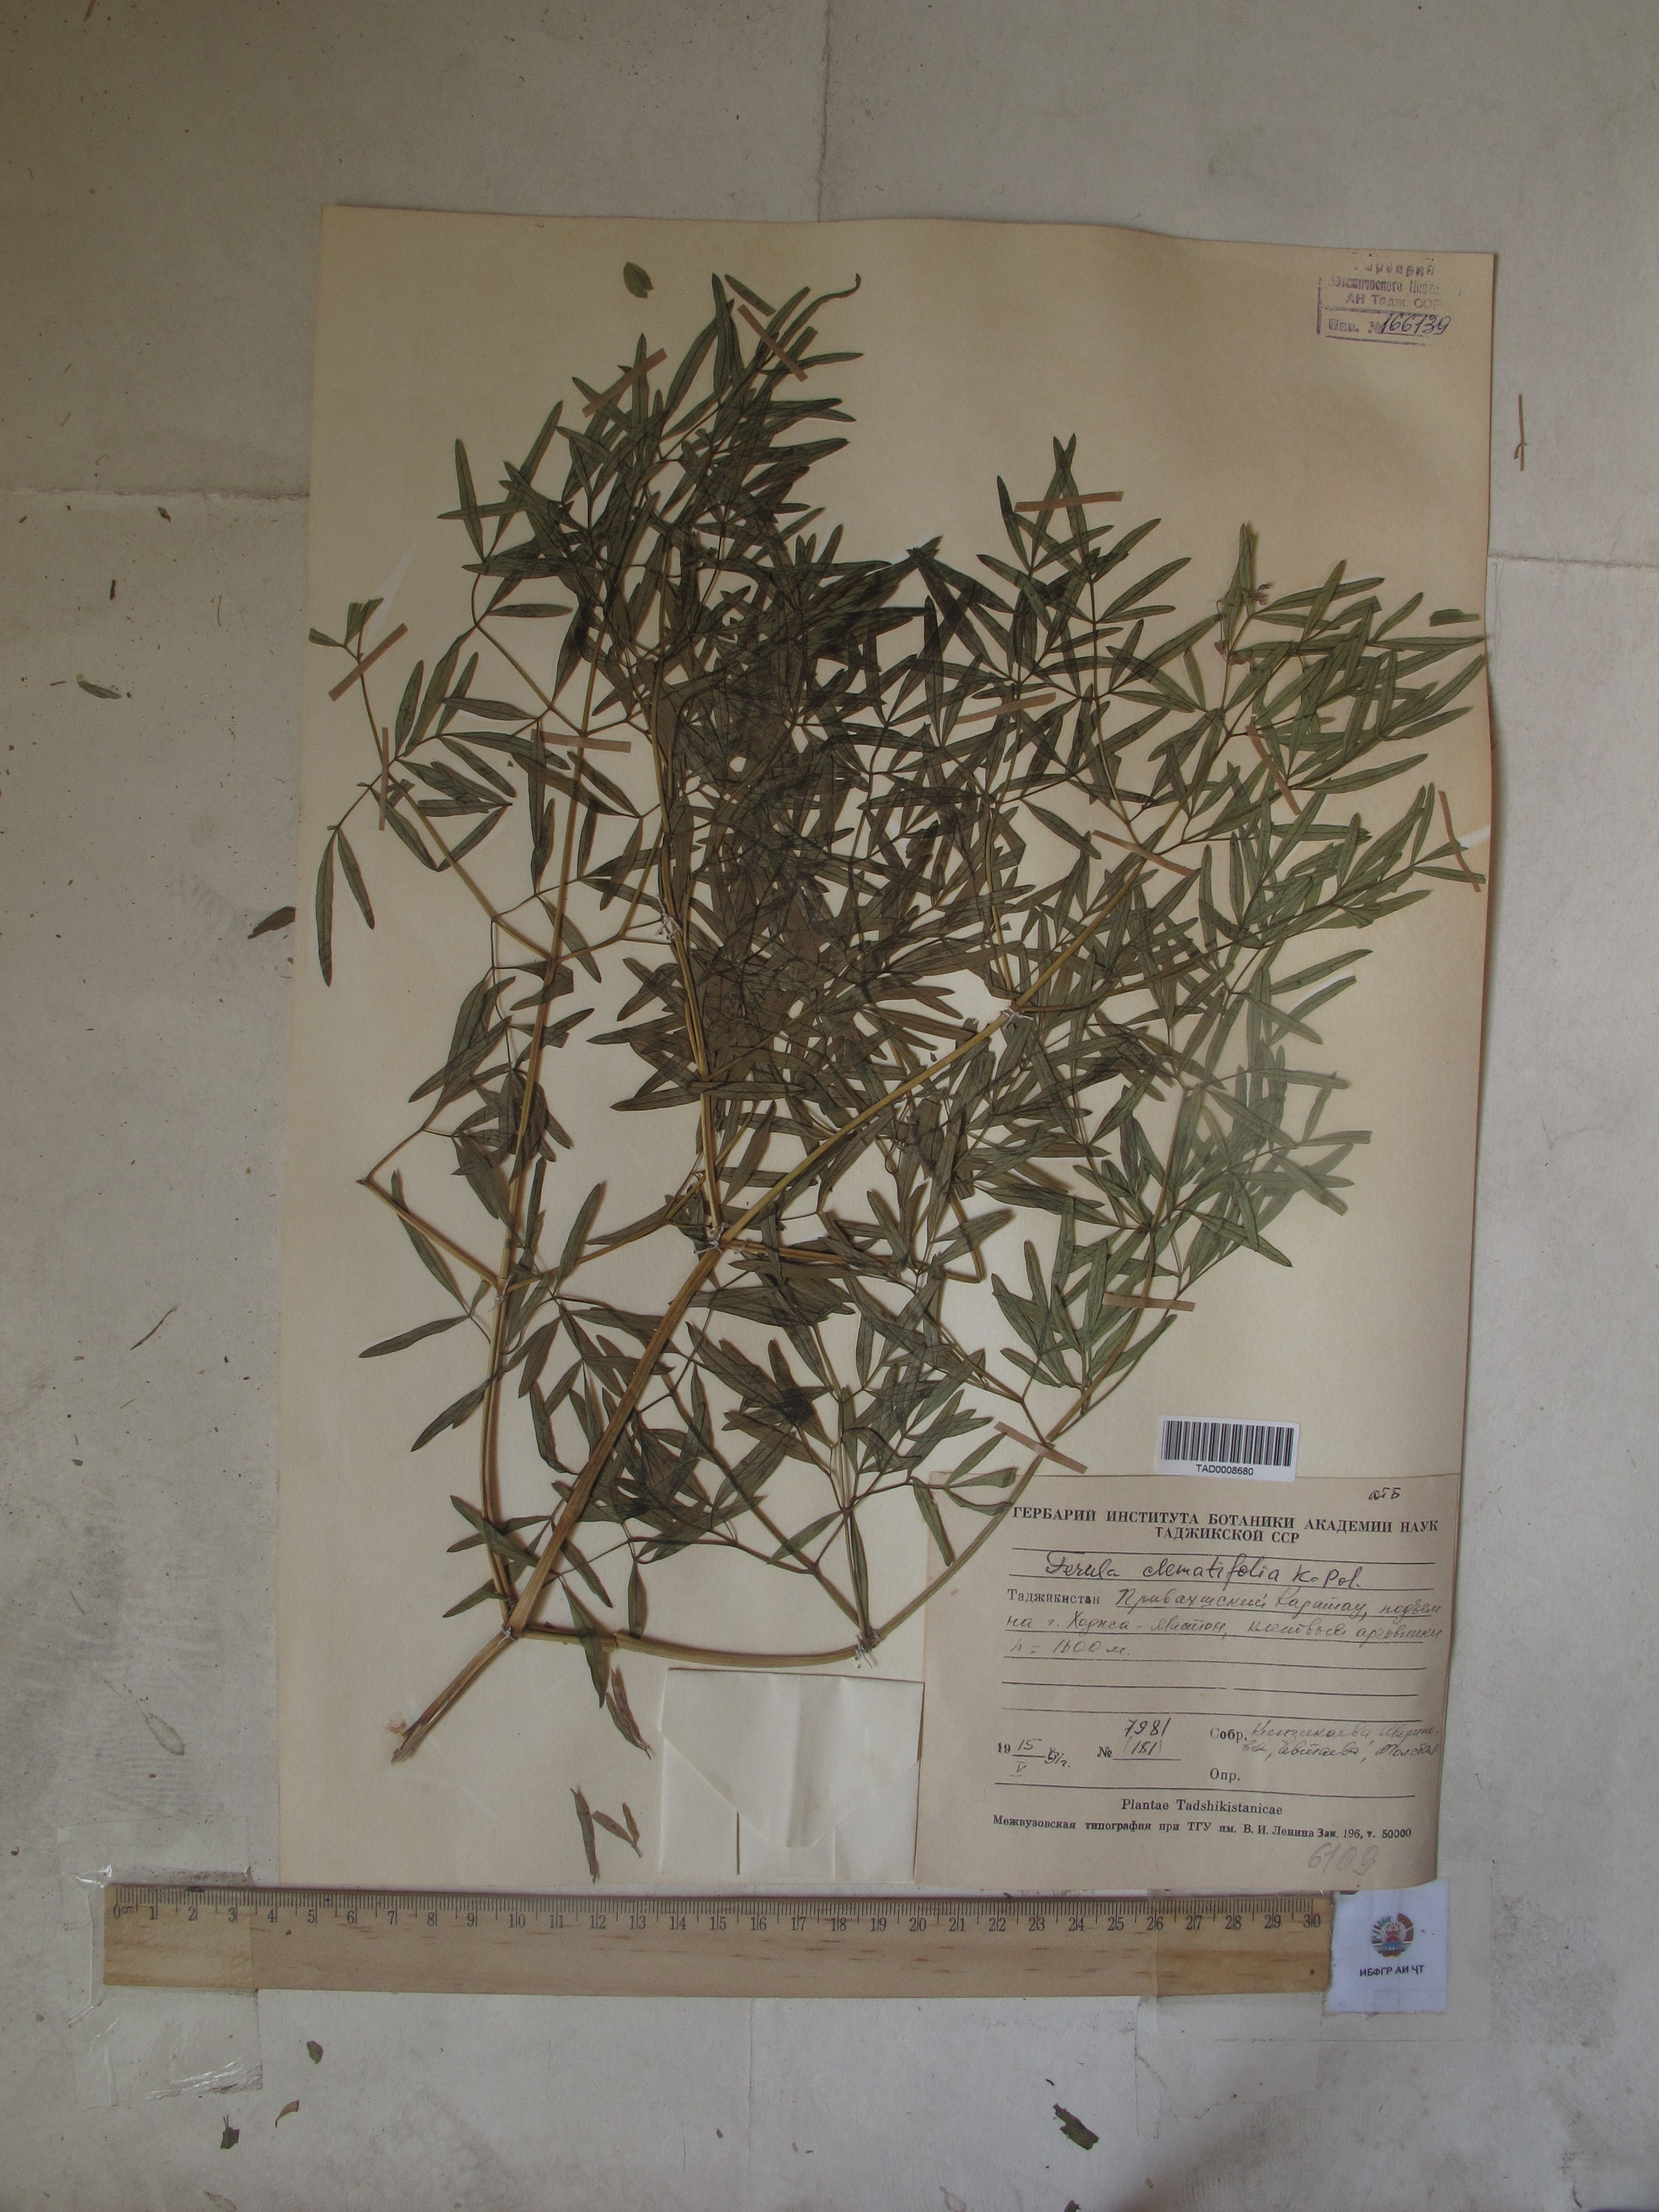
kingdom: Plantae
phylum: Tracheophyta
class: Magnoliopsida
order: Apiales
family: Apiaceae
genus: Ferula
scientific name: Ferula clematidifolia
